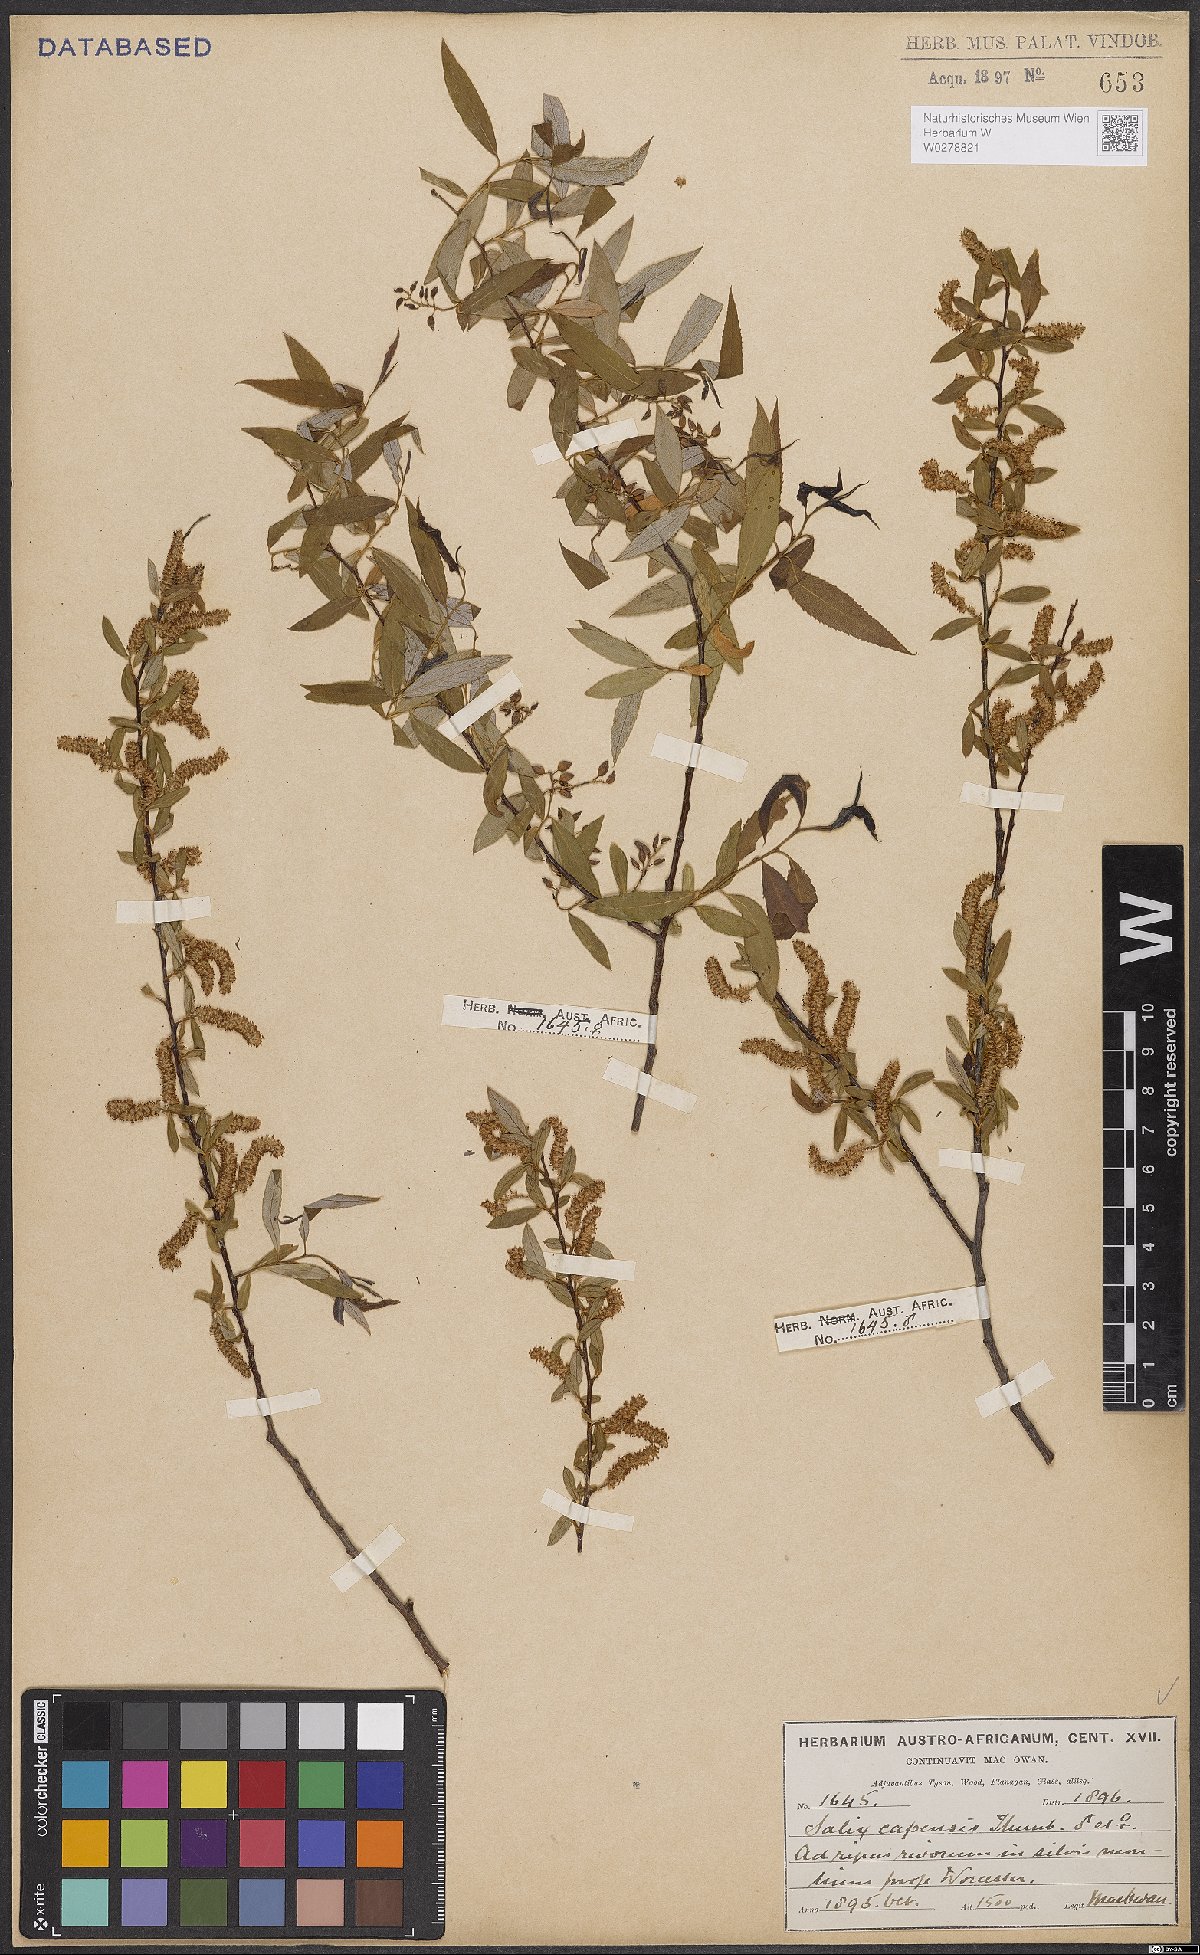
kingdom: Plantae
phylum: Tracheophyta
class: Magnoliopsida
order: Malpighiales
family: Salicaceae
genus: Salix
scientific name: Salix mucronata
